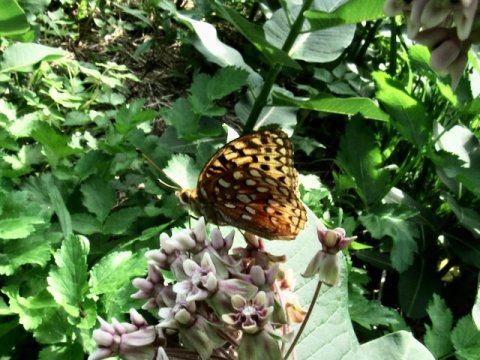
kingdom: Animalia
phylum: Arthropoda
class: Insecta
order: Lepidoptera
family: Nymphalidae
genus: Speyeria
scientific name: Speyeria aphrodite
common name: Aphrodite Fritillary
